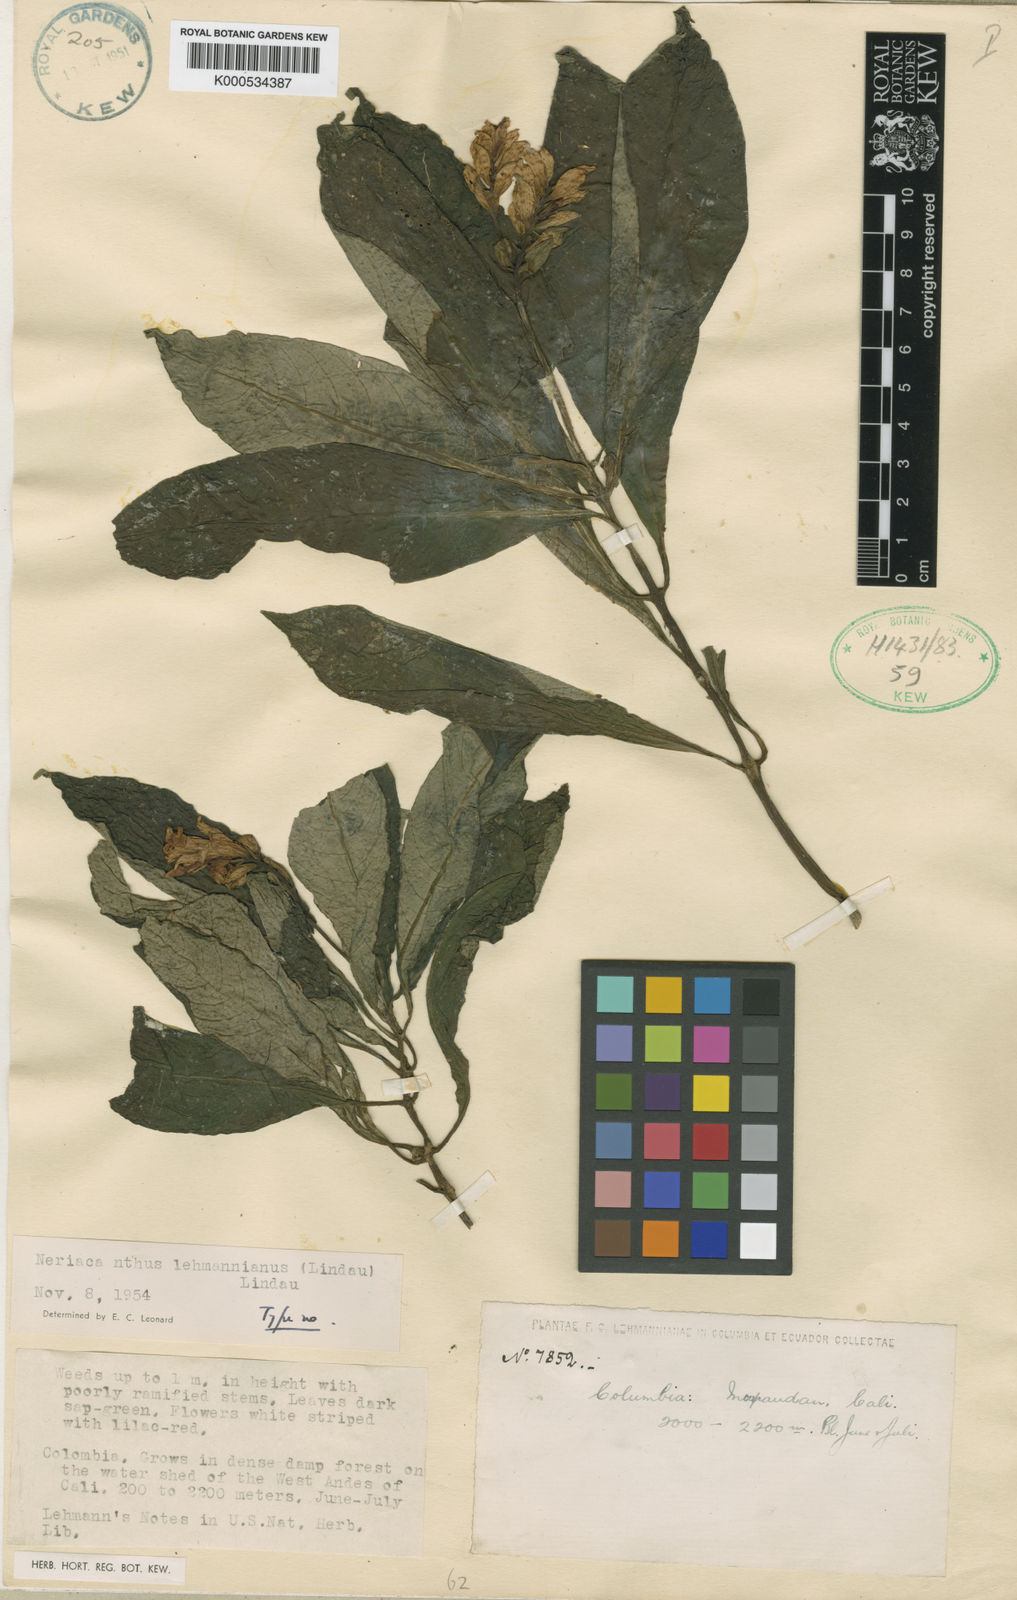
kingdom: Plantae
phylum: Tracheophyta
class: Magnoliopsida
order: Lamiales
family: Acanthaceae
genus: Neriacanthus
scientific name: Neriacanthus lehmannianus
